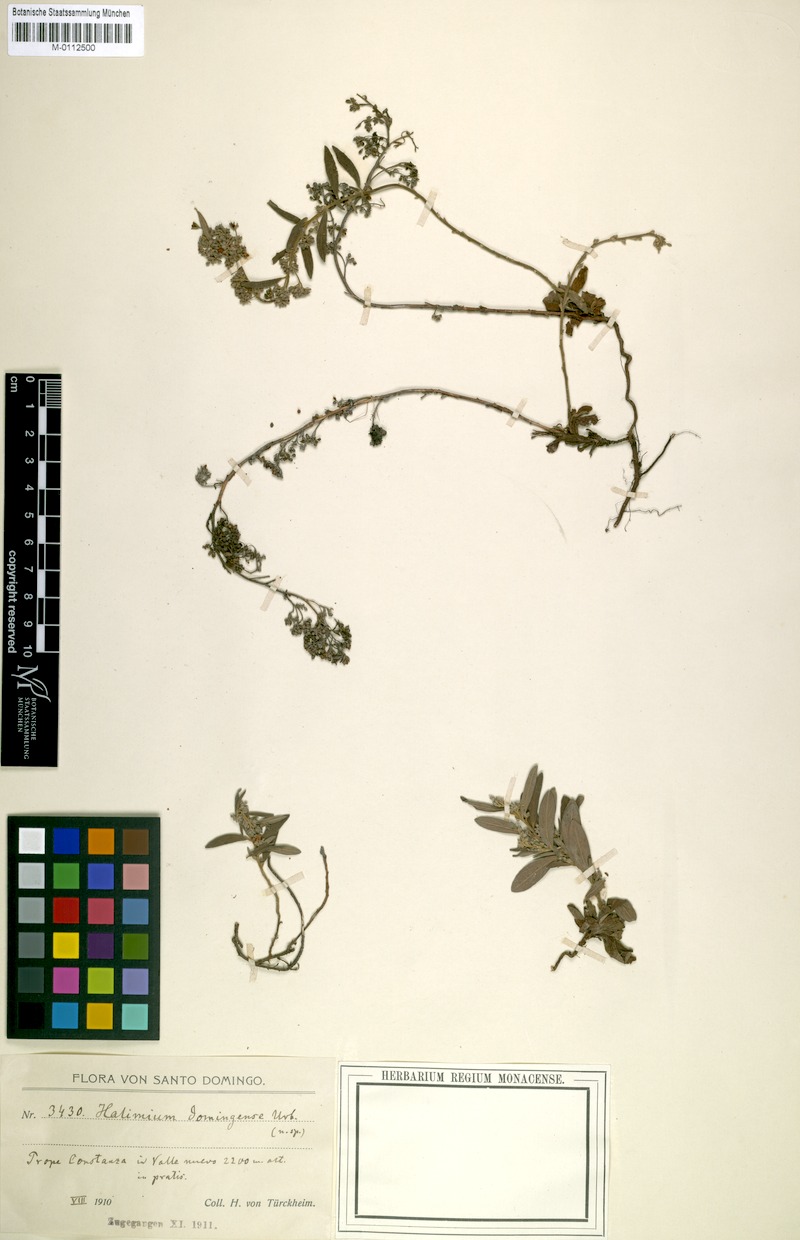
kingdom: Plantae
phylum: Tracheophyta
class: Magnoliopsida
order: Malvales
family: Cistaceae
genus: Crocanthemum
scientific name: Crocanthemum rosmarinifolium
